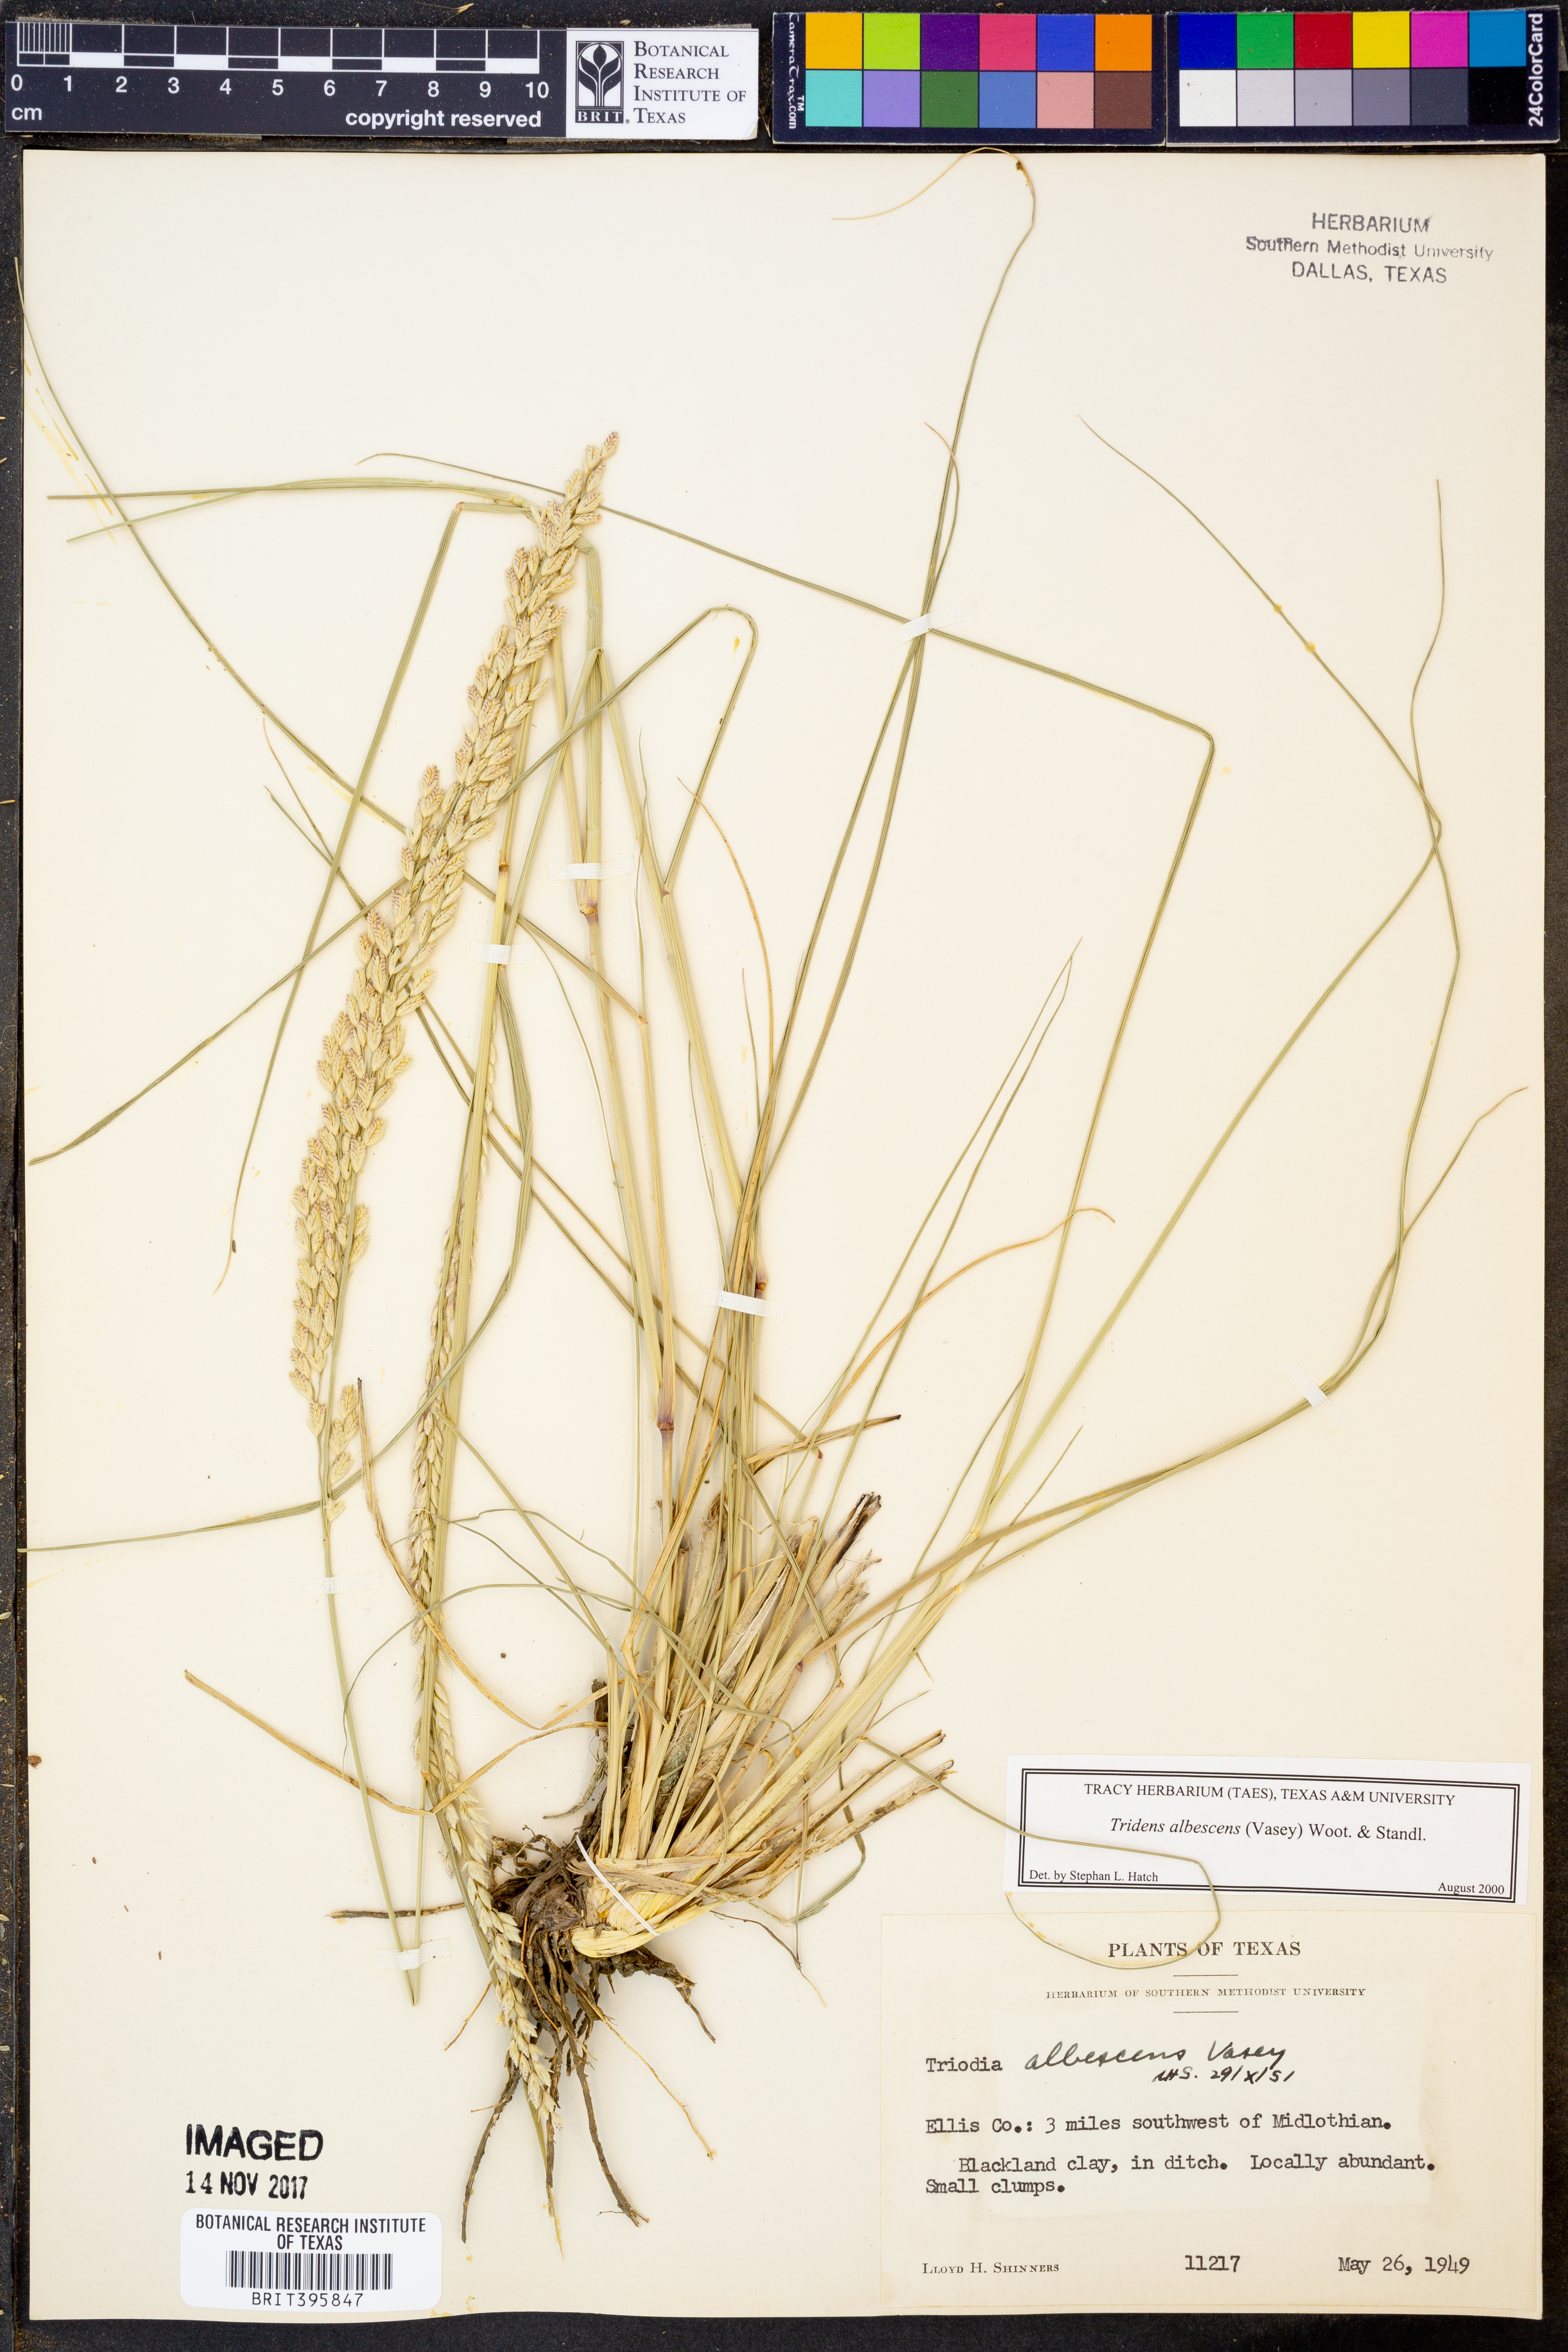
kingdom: Plantae
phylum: Tracheophyta
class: Liliopsida
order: Poales
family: Poaceae
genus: Tridens
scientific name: Tridens albescens
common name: White tridens
